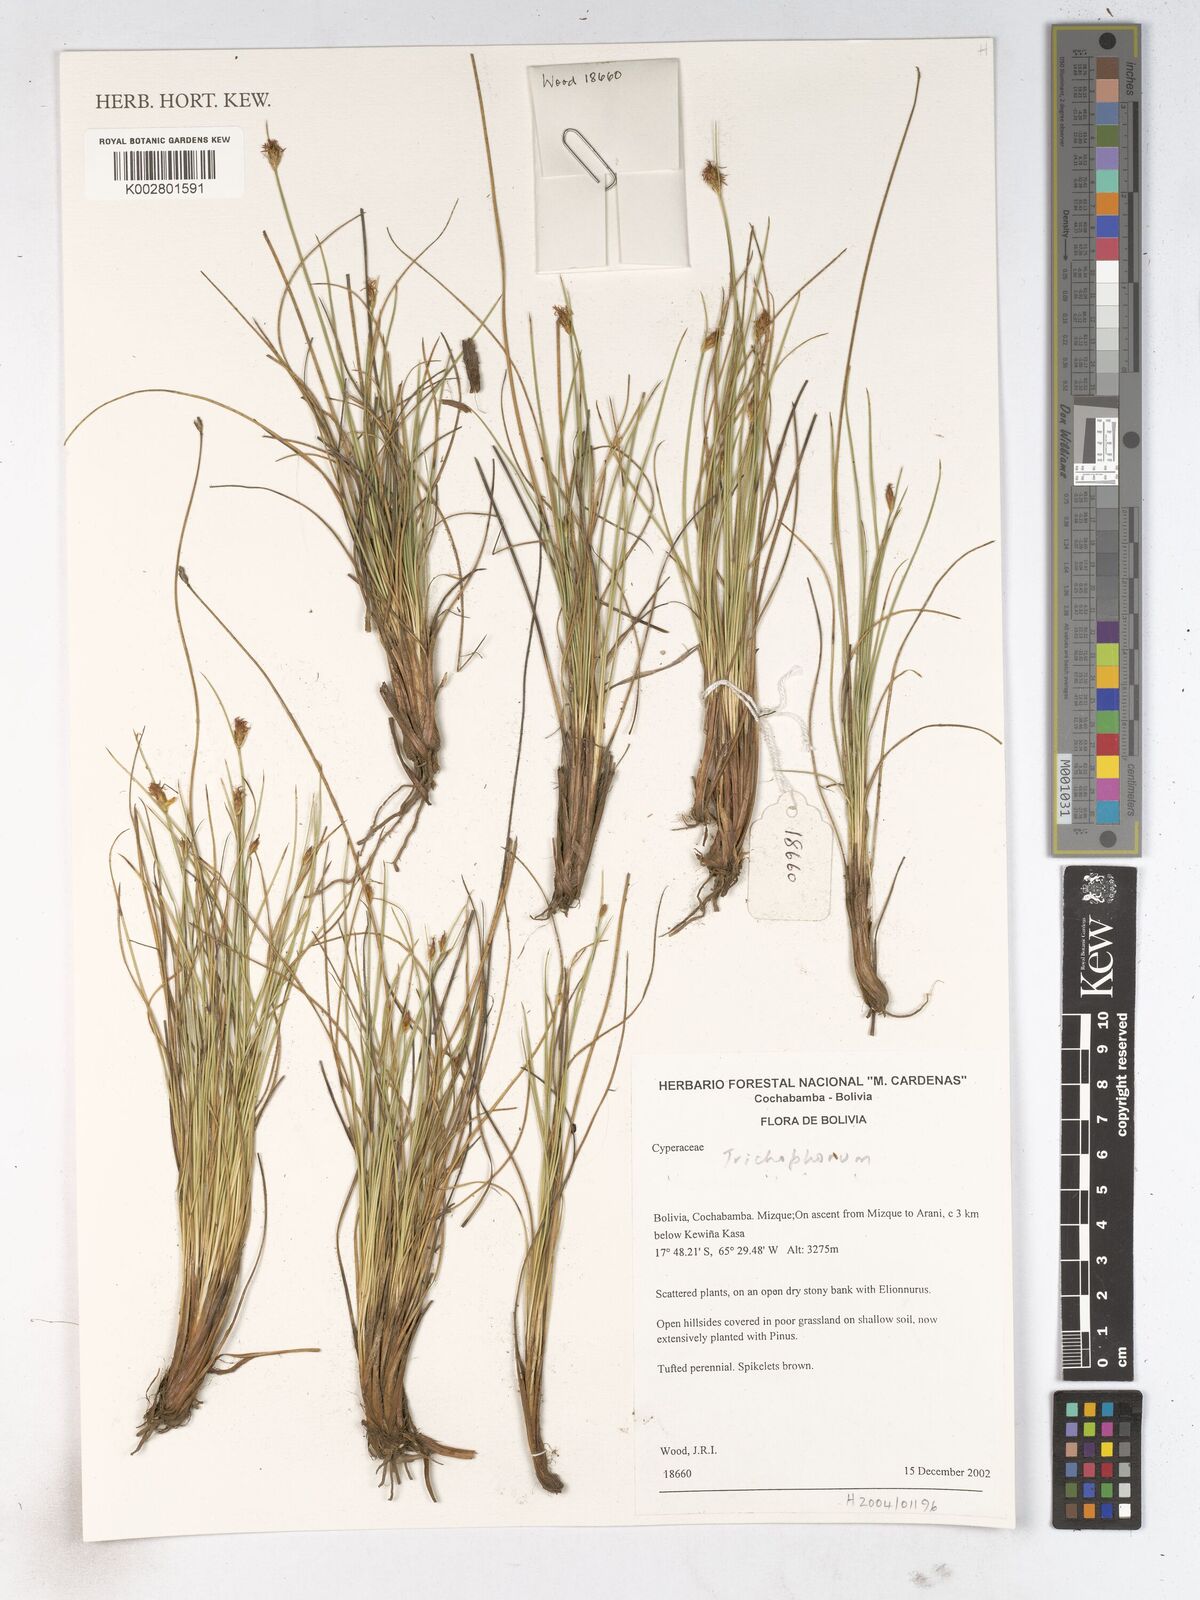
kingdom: Plantae
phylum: Tracheophyta
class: Liliopsida
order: Poales
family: Cyperaceae
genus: Trichophorum
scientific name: Trichophorum rigidum
